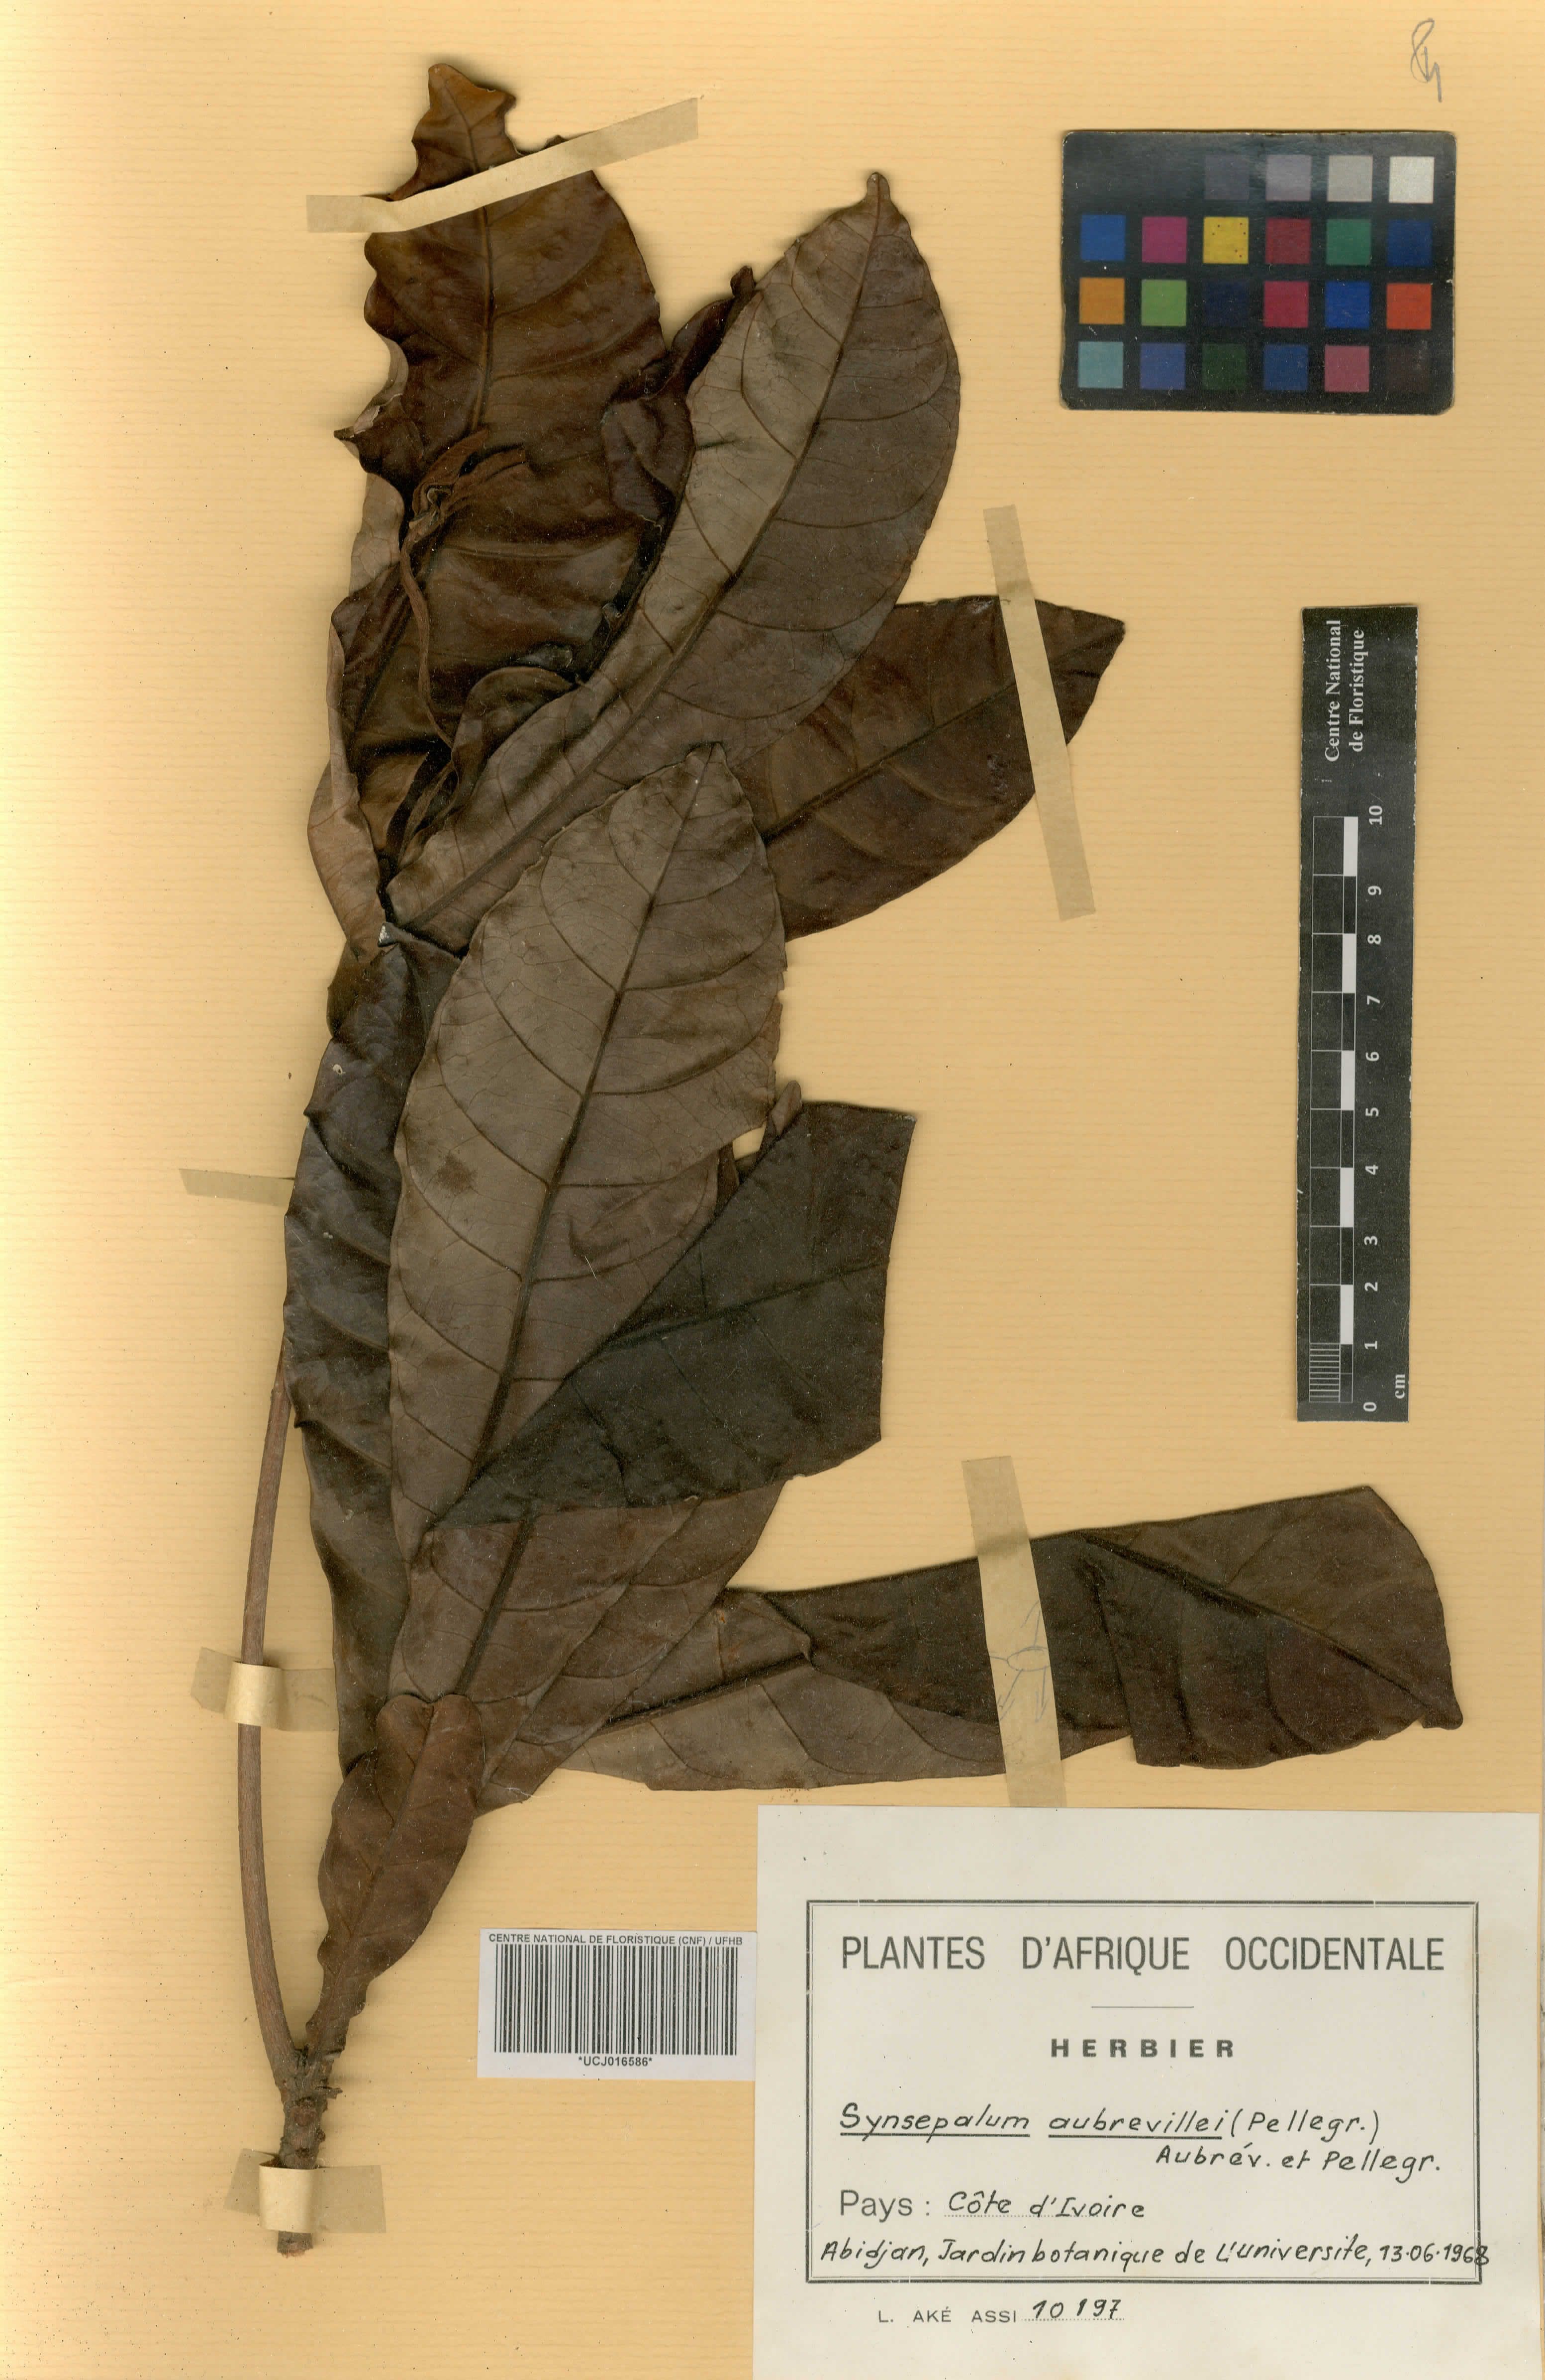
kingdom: Plantae
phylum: Tracheophyta
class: Magnoliopsida
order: Ericales
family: Sapotaceae
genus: Synsepalum
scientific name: Synsepalum aubrevillei
